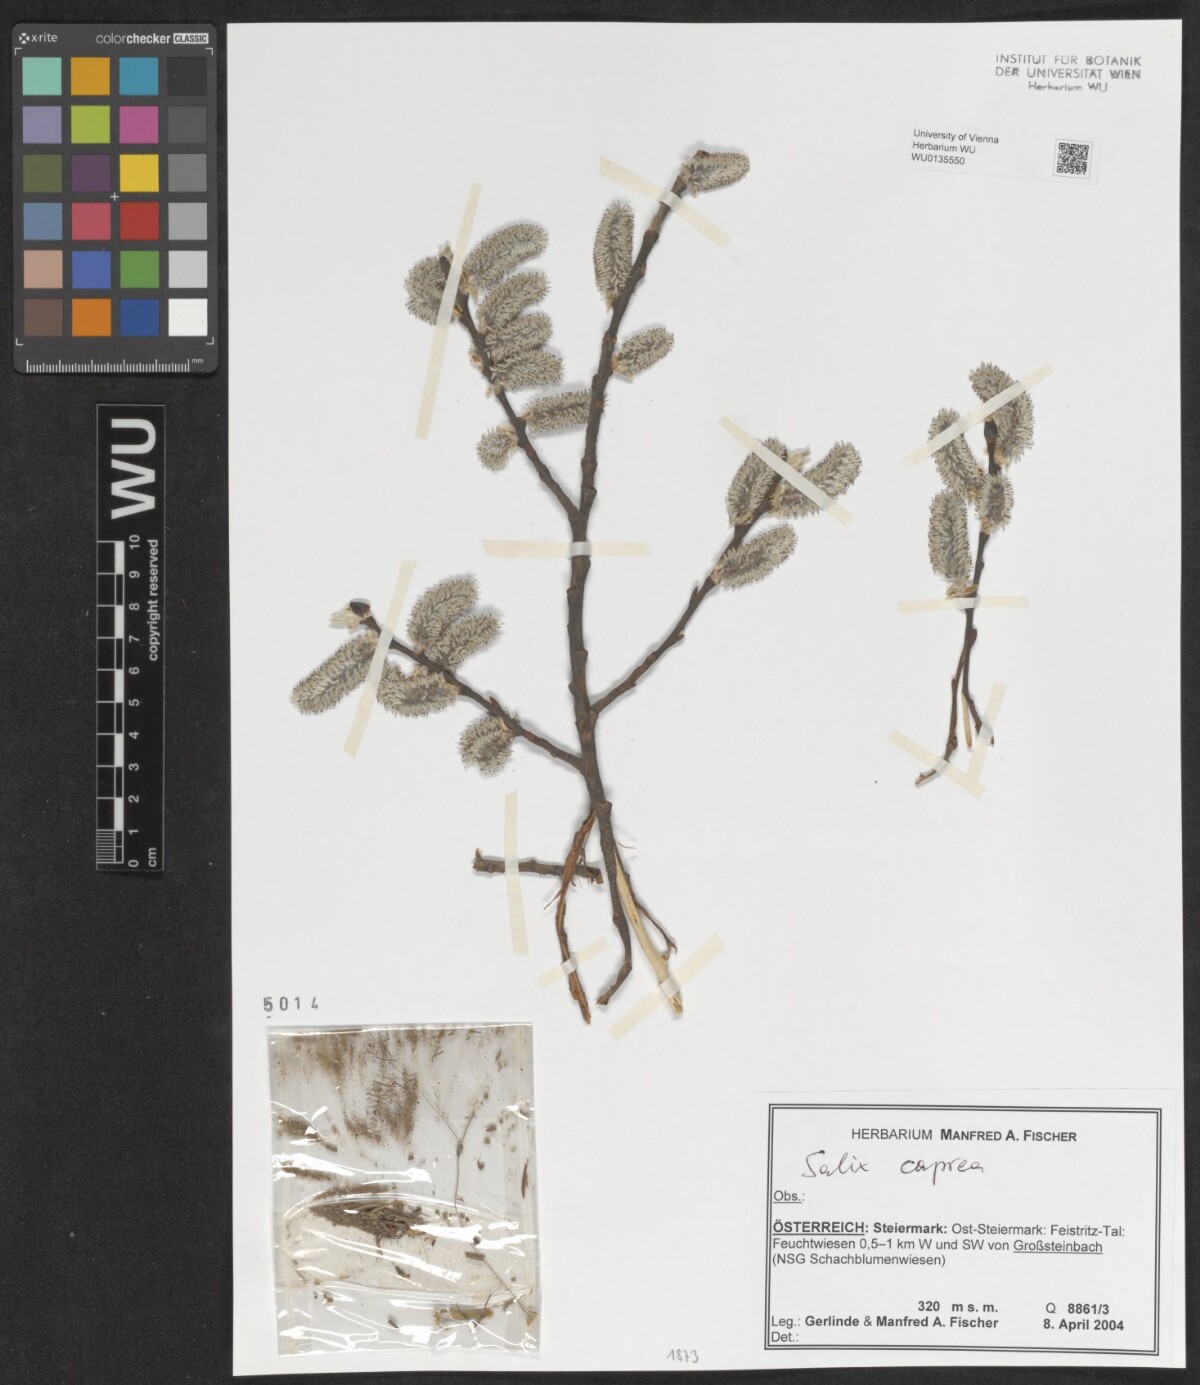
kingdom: Plantae
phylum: Tracheophyta
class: Magnoliopsida
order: Malpighiales
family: Salicaceae
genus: Salix
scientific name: Salix caprea
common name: Goat willow
